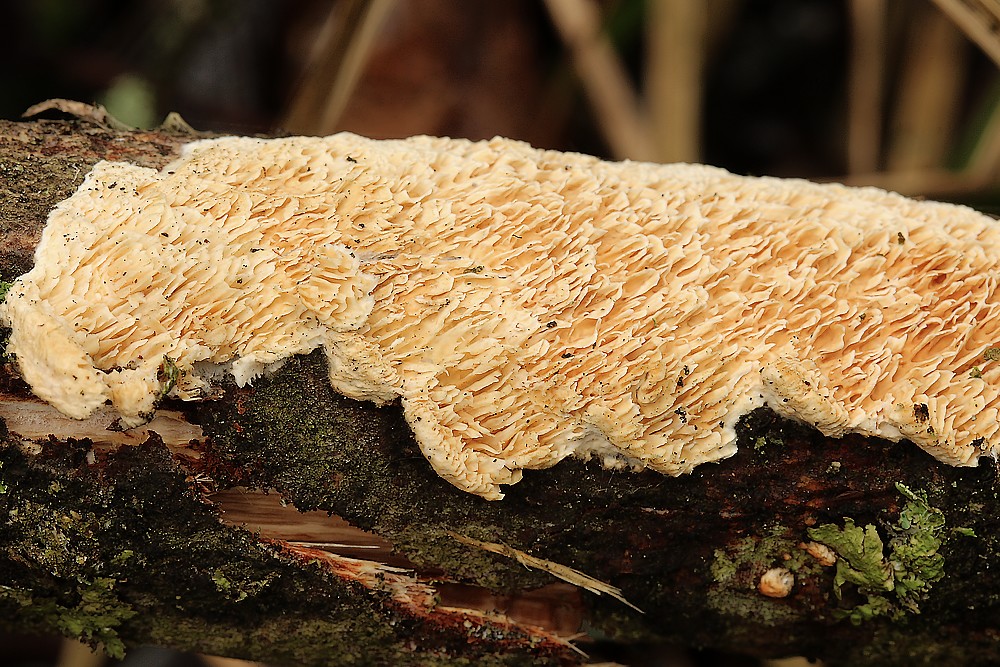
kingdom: Fungi
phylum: Basidiomycota
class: Agaricomycetes
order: Polyporales
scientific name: Polyporales
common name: poresvampordenen
